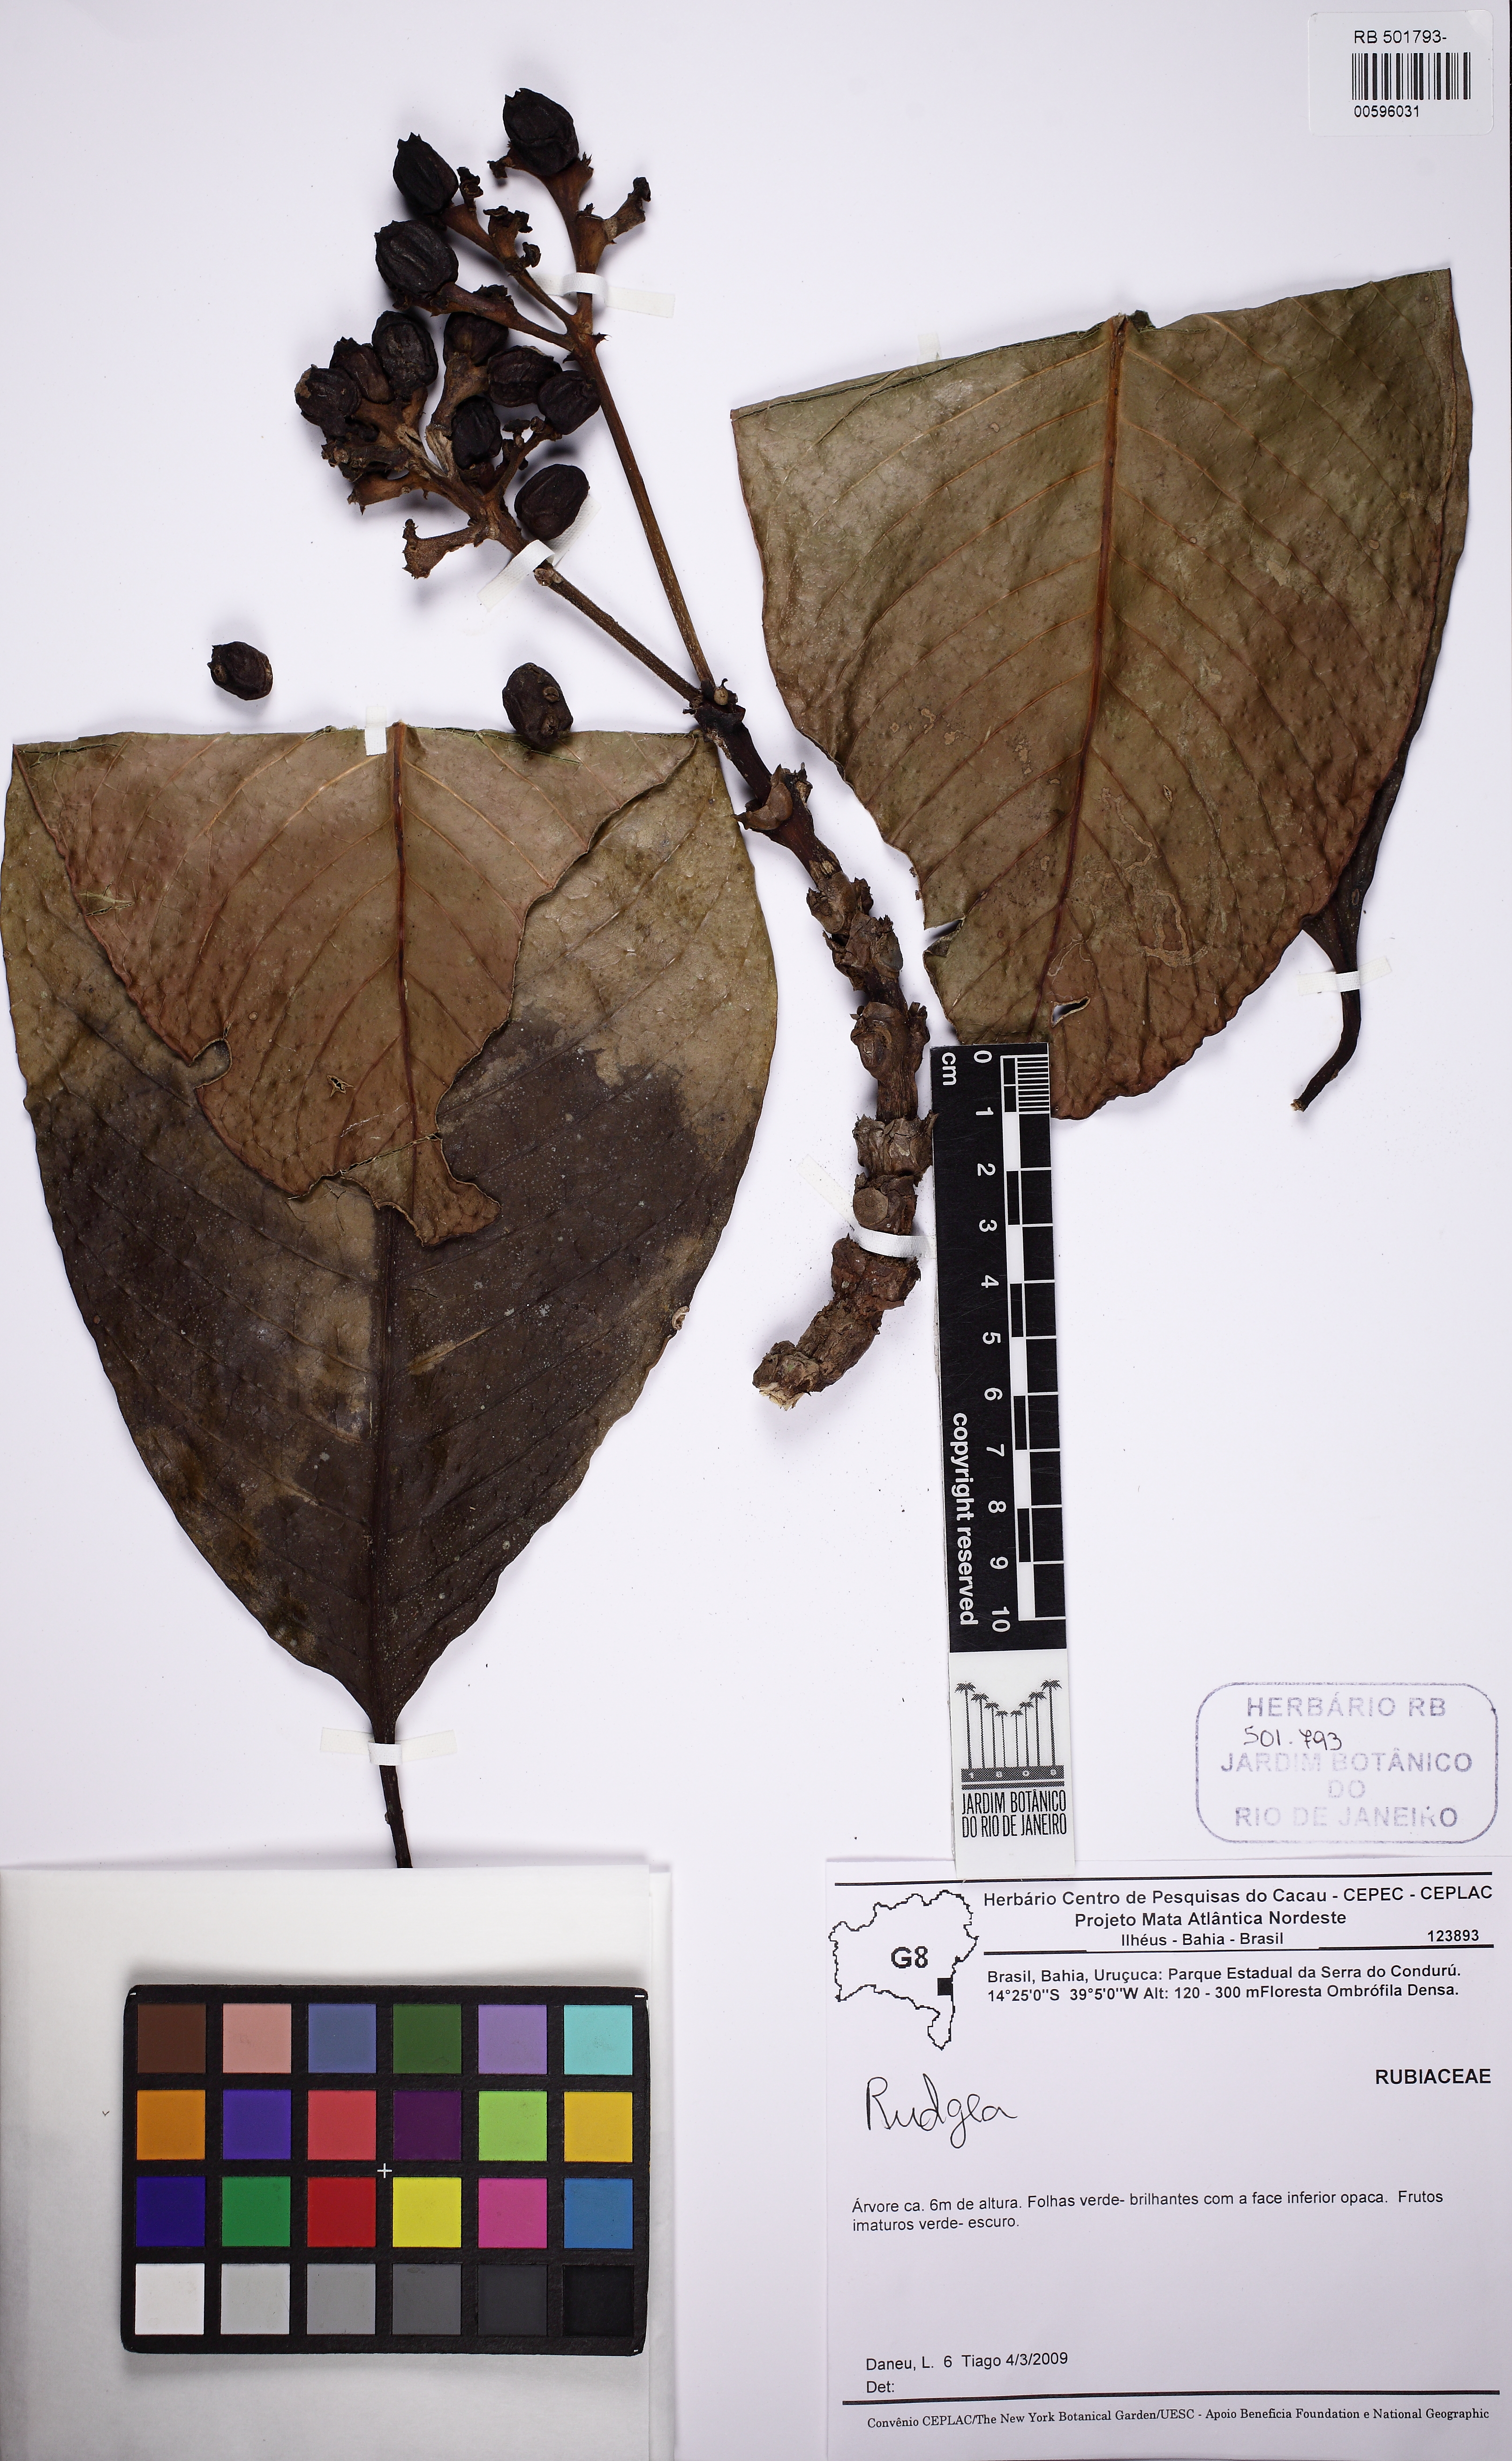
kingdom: Plantae
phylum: Tracheophyta
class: Magnoliopsida
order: Gentianales
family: Rubiaceae
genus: Rudgea
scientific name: Rudgea
